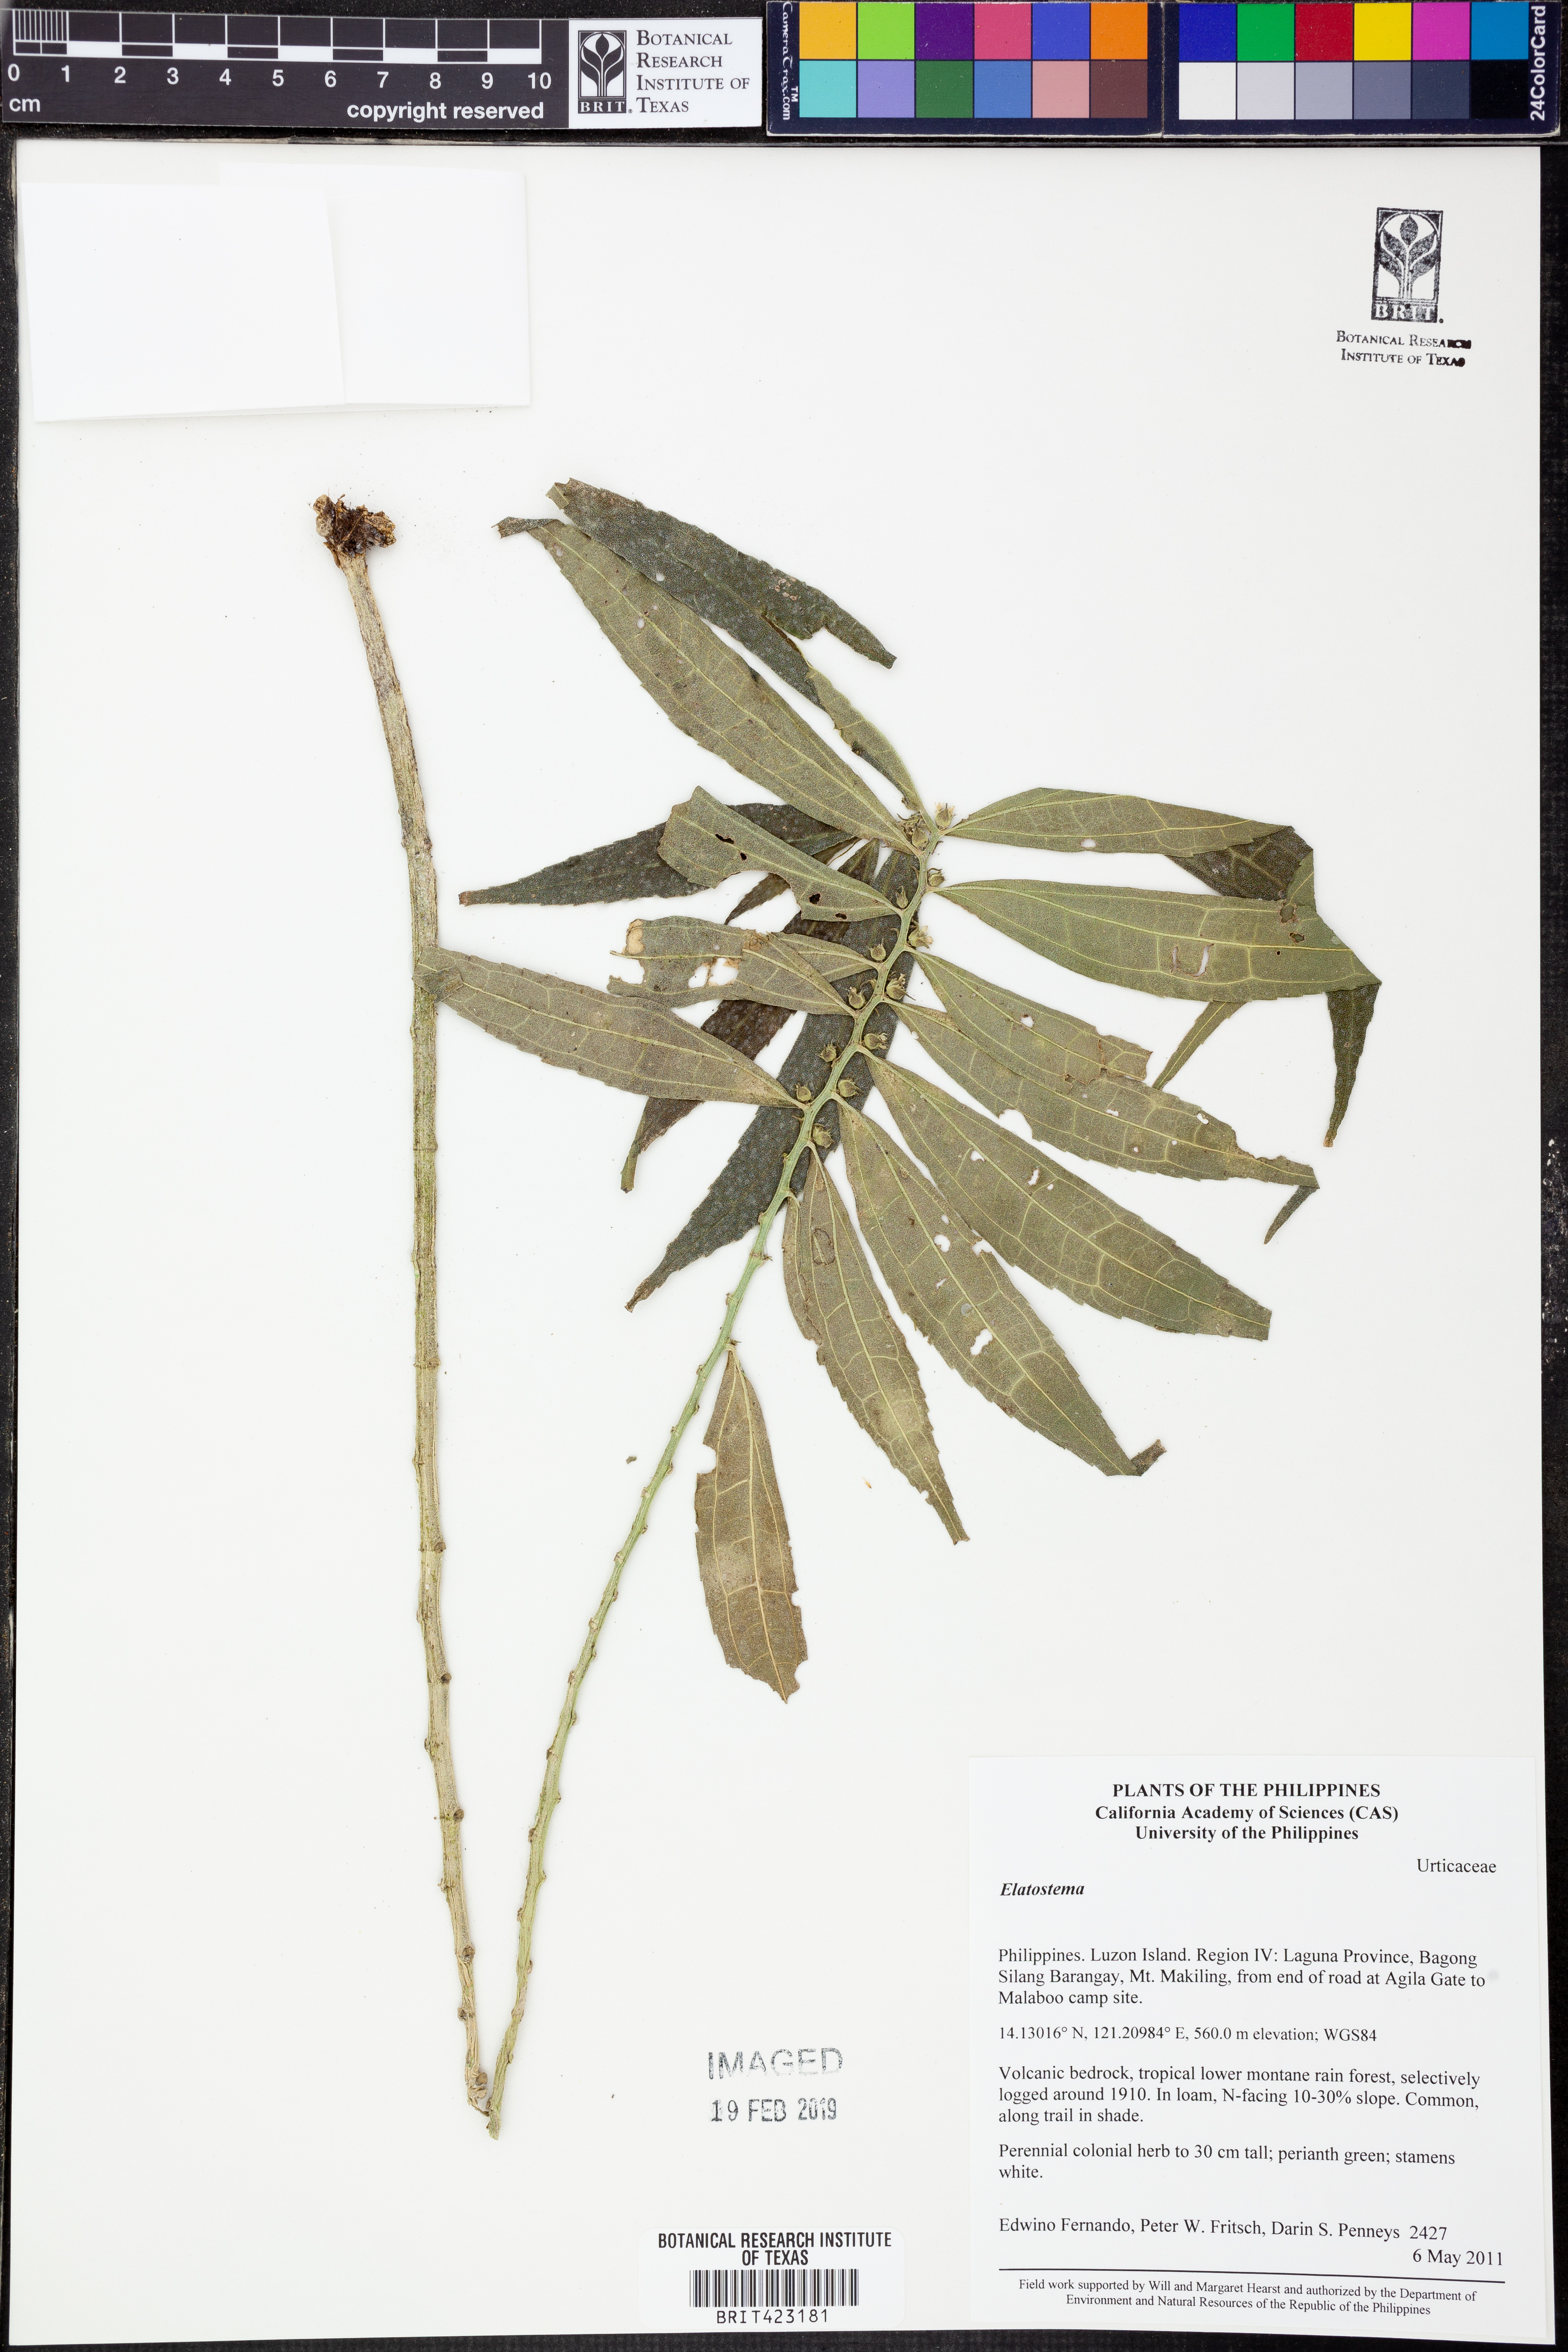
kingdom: Plantae
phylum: Tracheophyta
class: Magnoliopsida
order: Rosales
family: Urticaceae
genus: Elatostema
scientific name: Elatostema
